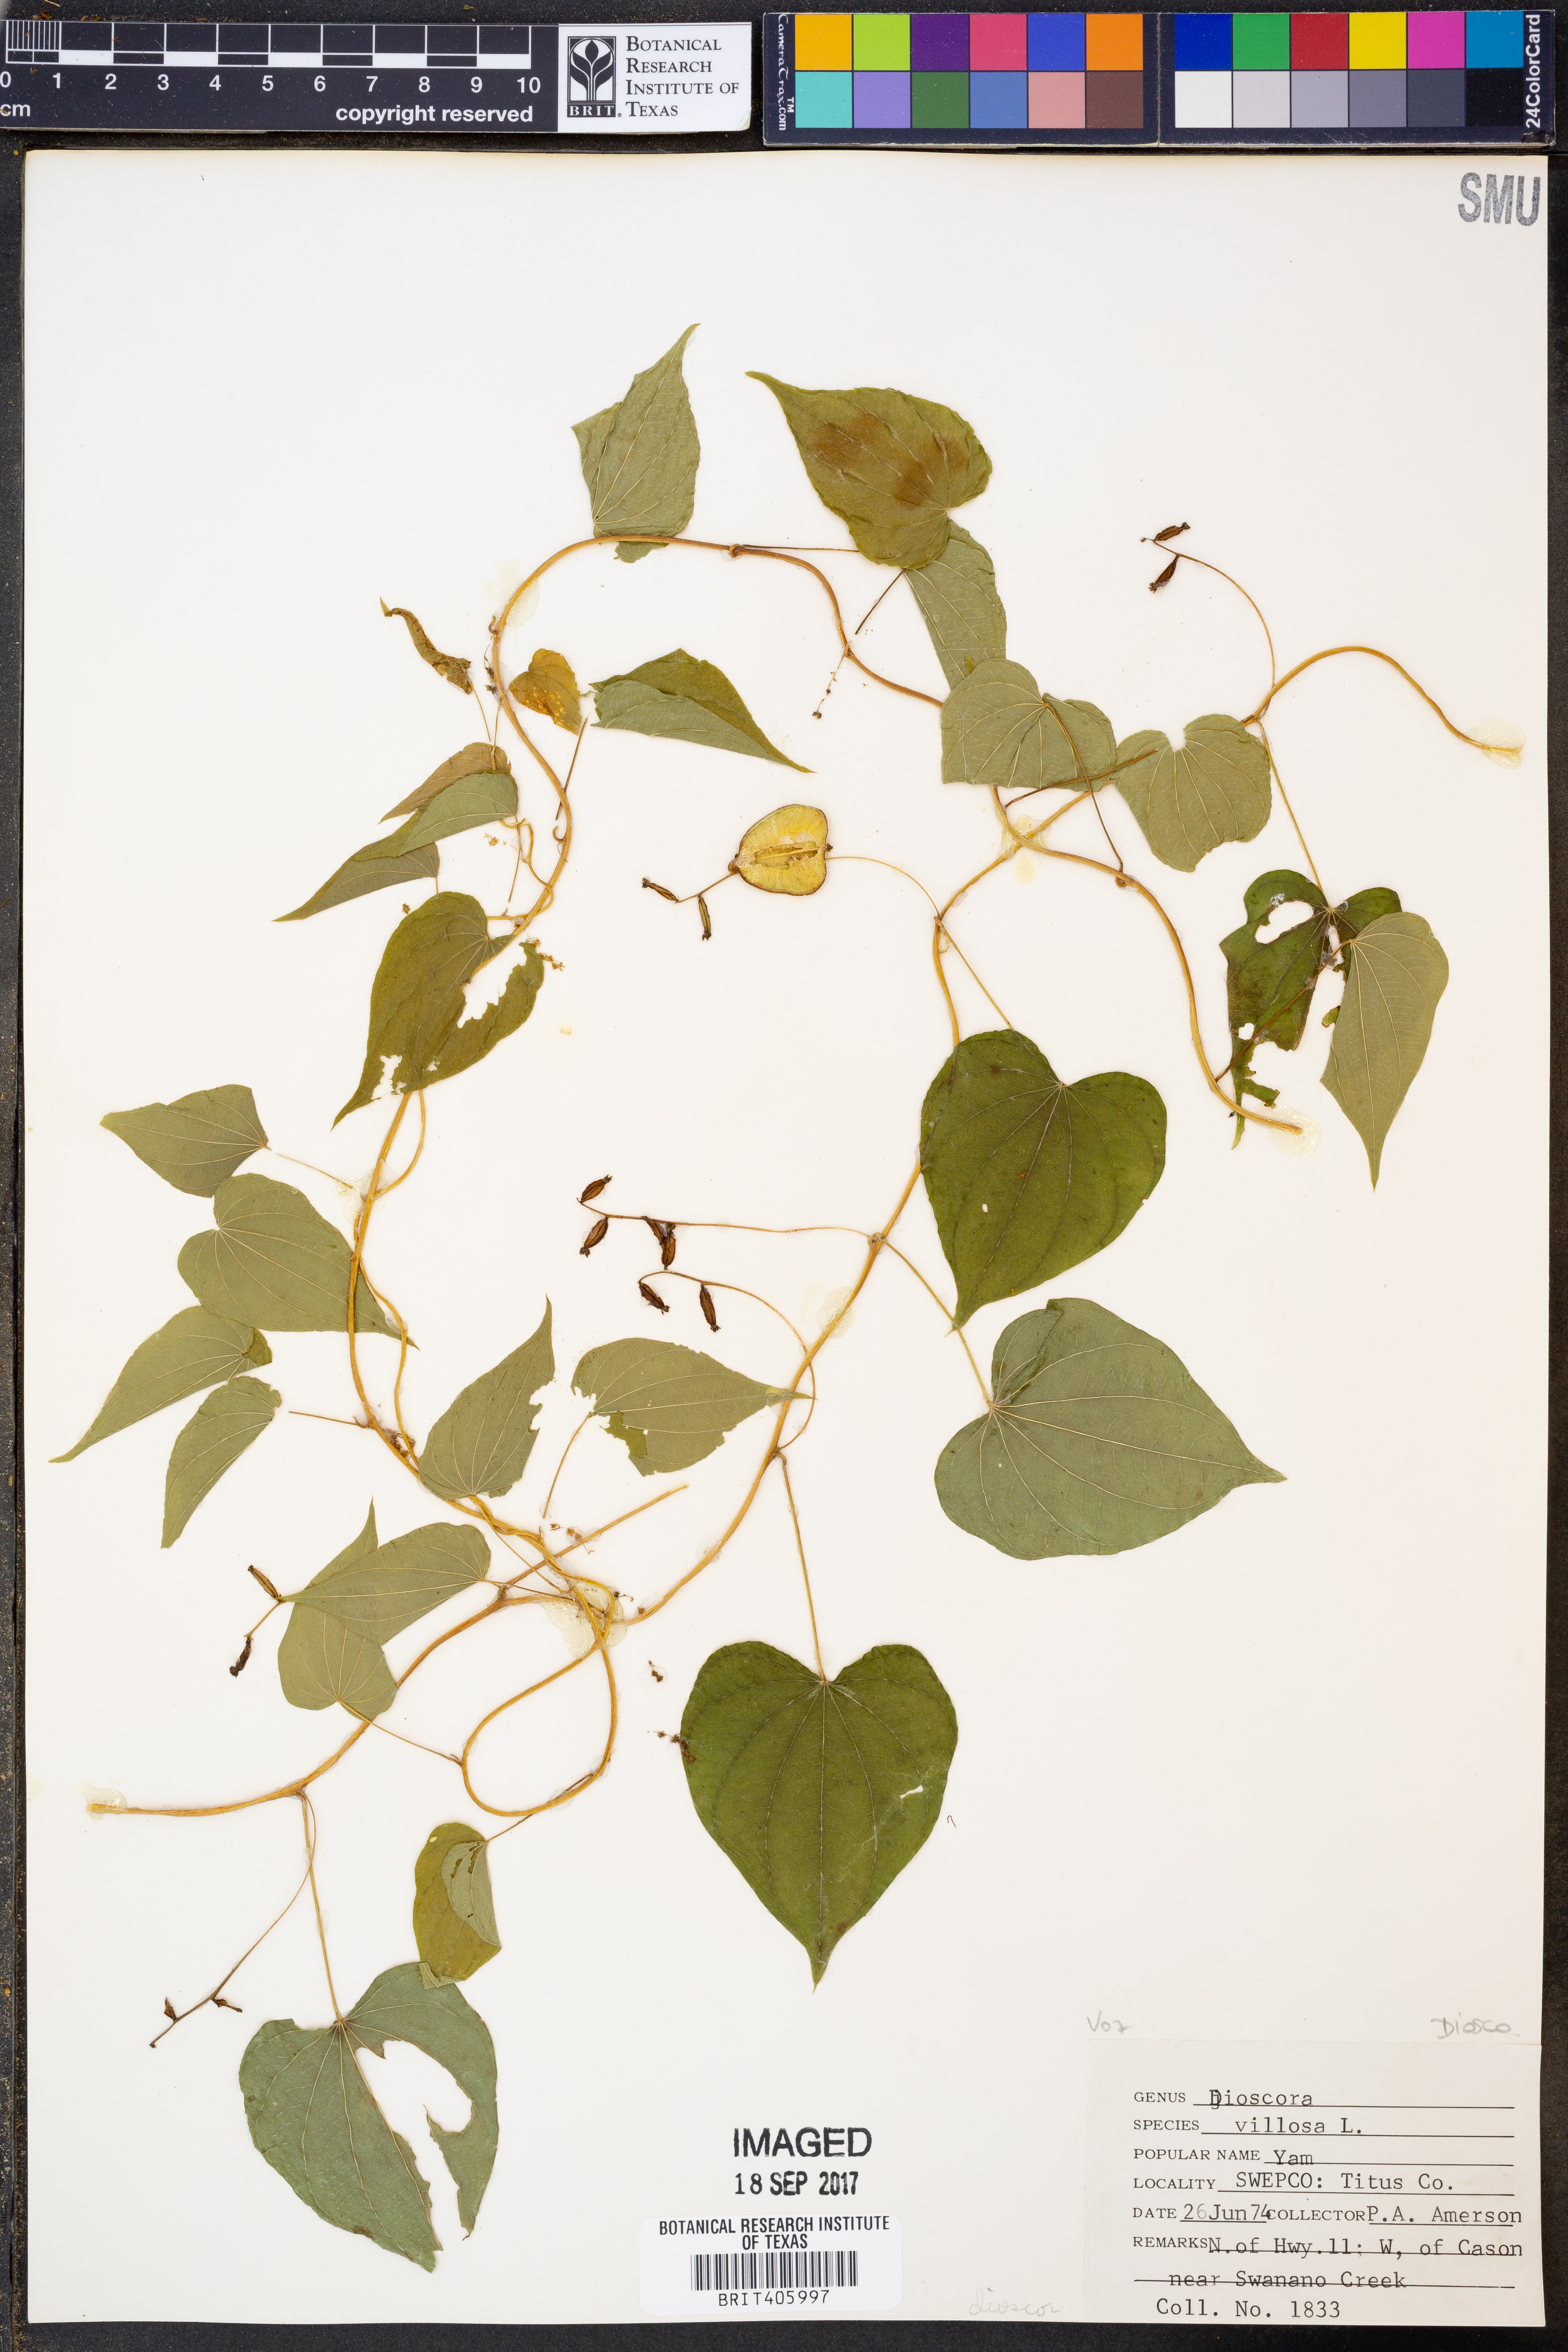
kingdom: Plantae
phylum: Tracheophyta
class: Liliopsida
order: Dioscoreales
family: Dioscoreaceae
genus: Dioscorea
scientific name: Dioscorea villosa
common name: Wild yam
